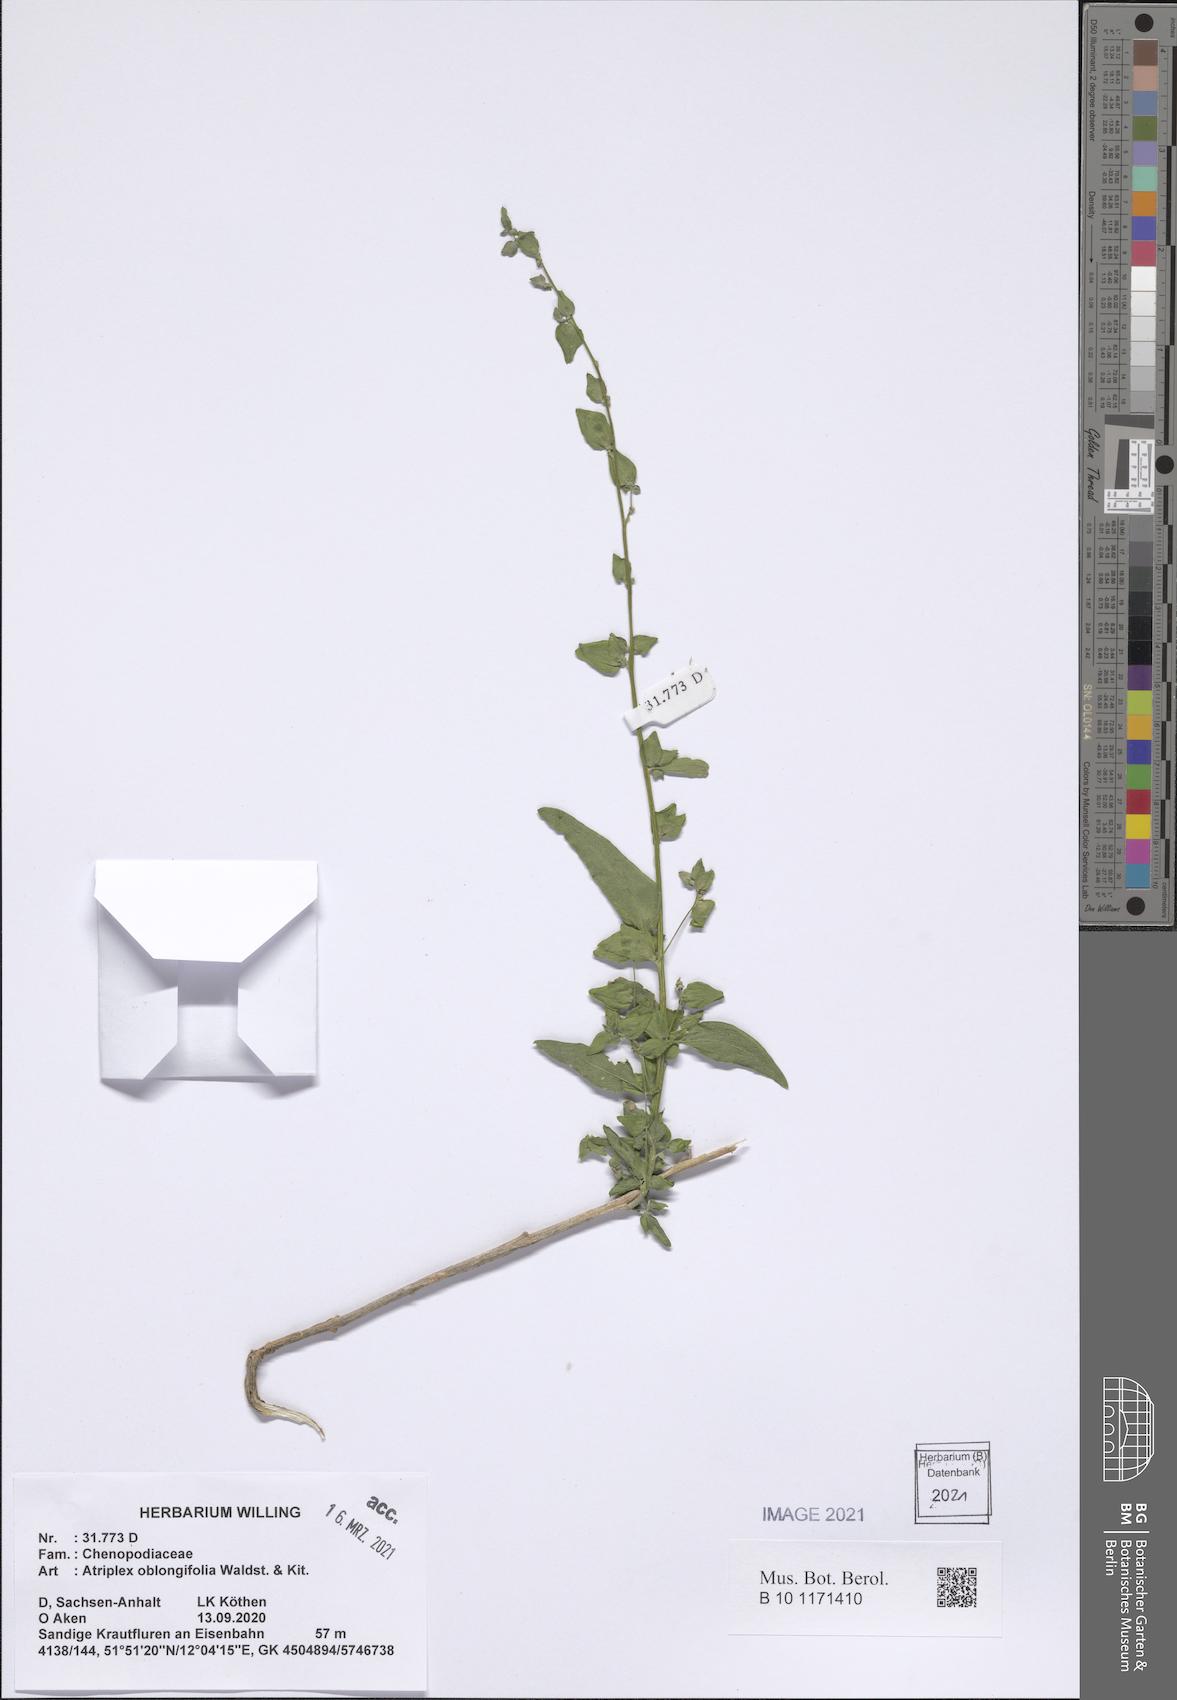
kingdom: Plantae
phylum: Tracheophyta
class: Magnoliopsida
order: Caryophyllales
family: Amaranthaceae
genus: Atriplex
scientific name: Atriplex oblongifolia
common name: Oblongleaf orache
